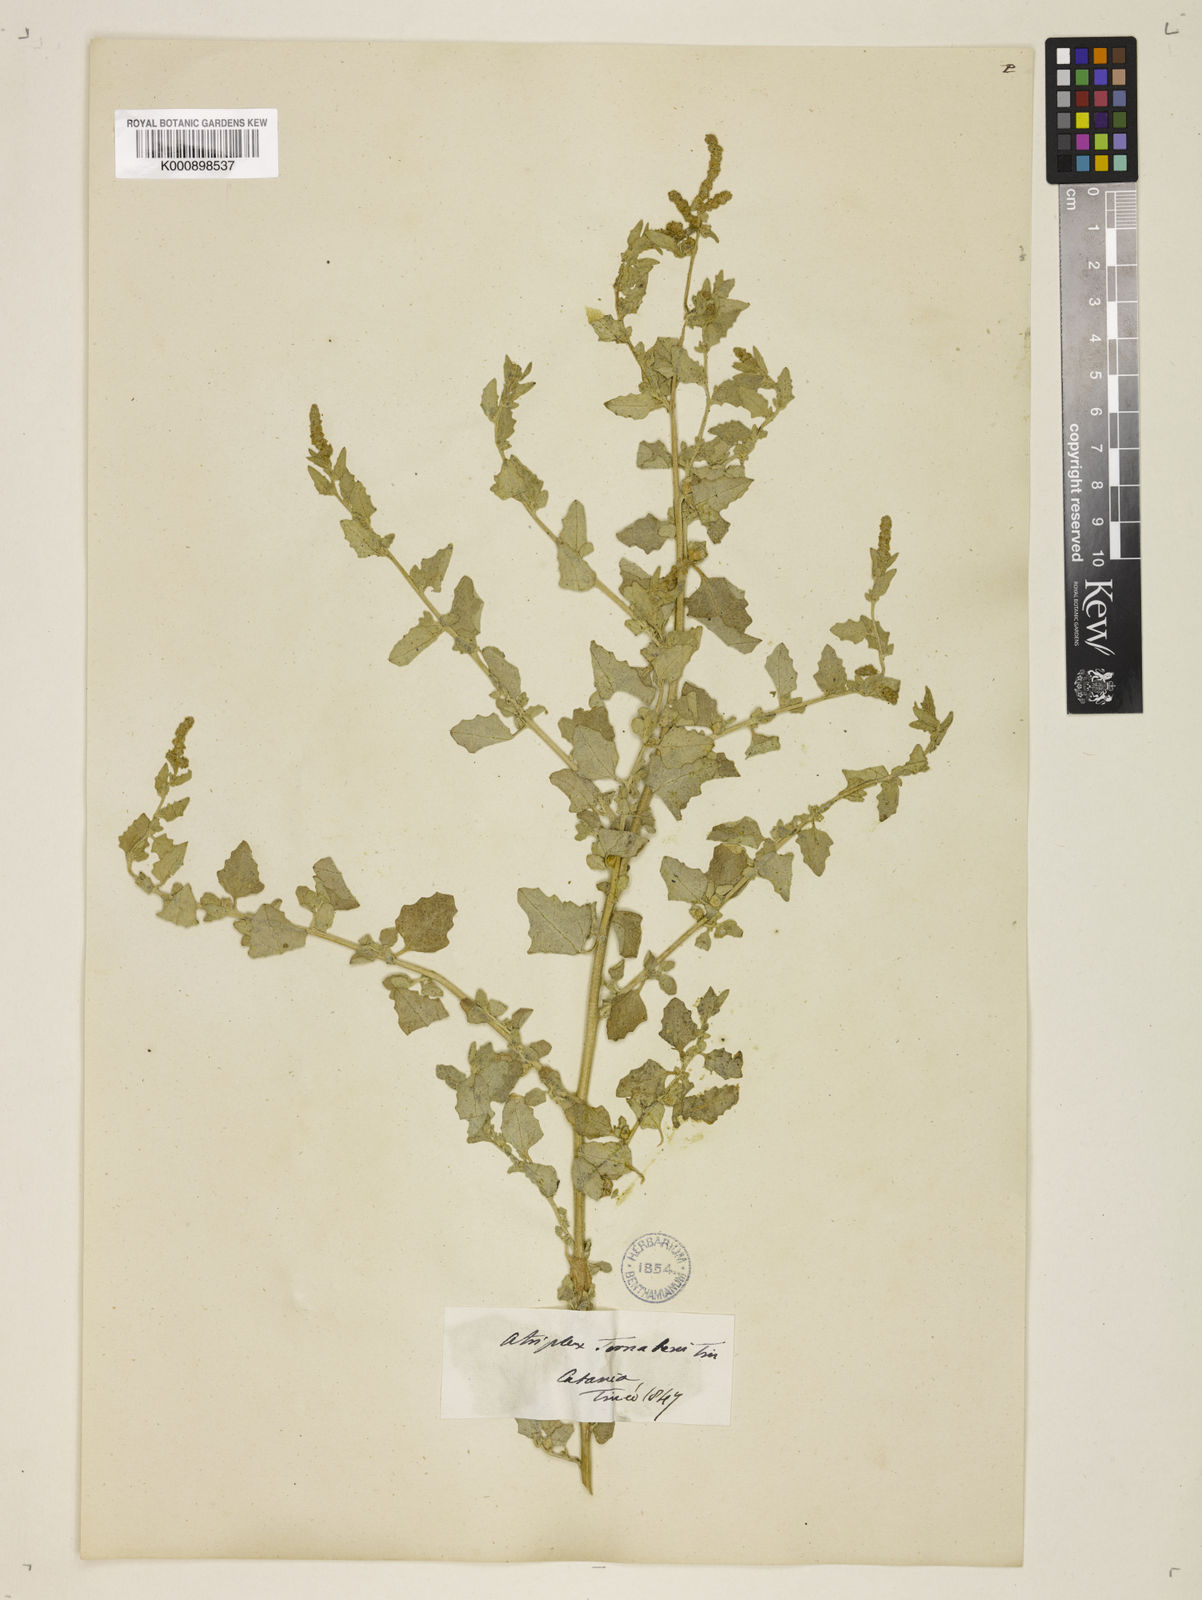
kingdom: Plantae
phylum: Tracheophyta
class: Magnoliopsida
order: Caryophyllales
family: Amaranthaceae
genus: Atriplex
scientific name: Atriplex
